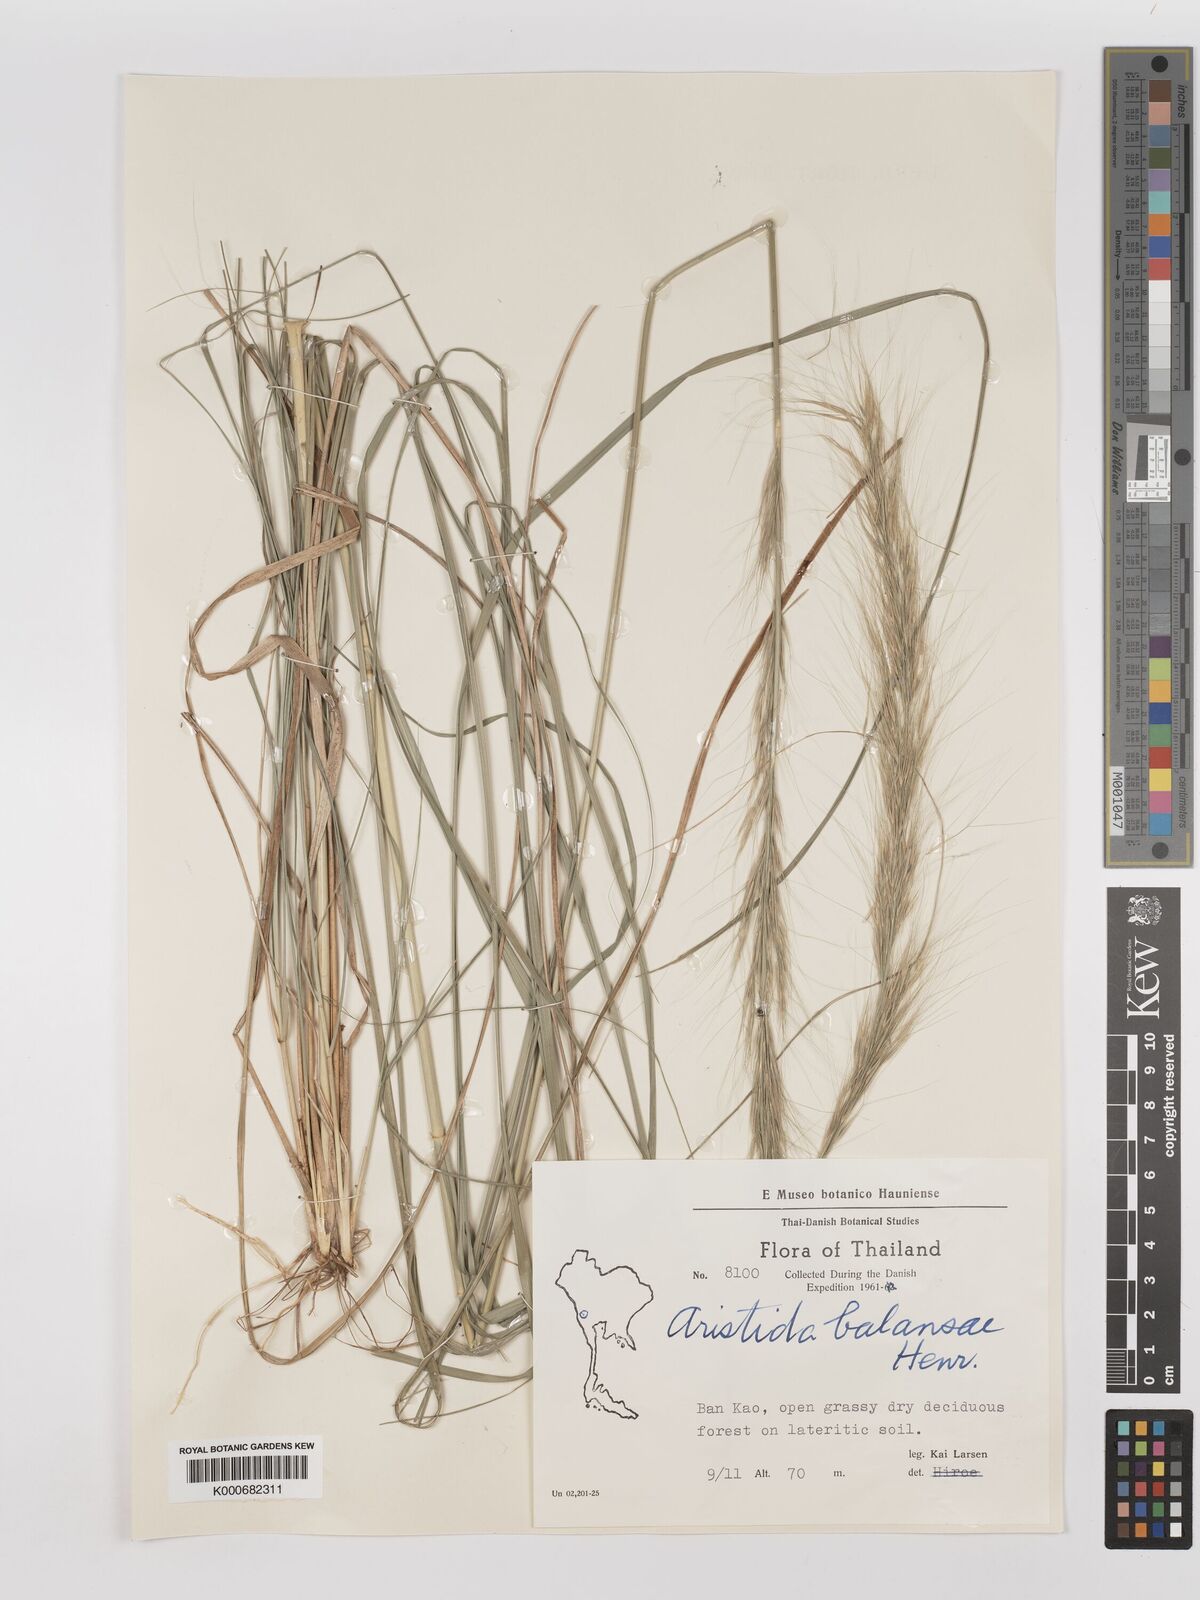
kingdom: Plantae
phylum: Tracheophyta
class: Liliopsida
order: Poales
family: Poaceae
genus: Aristida
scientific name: Aristida balansae
